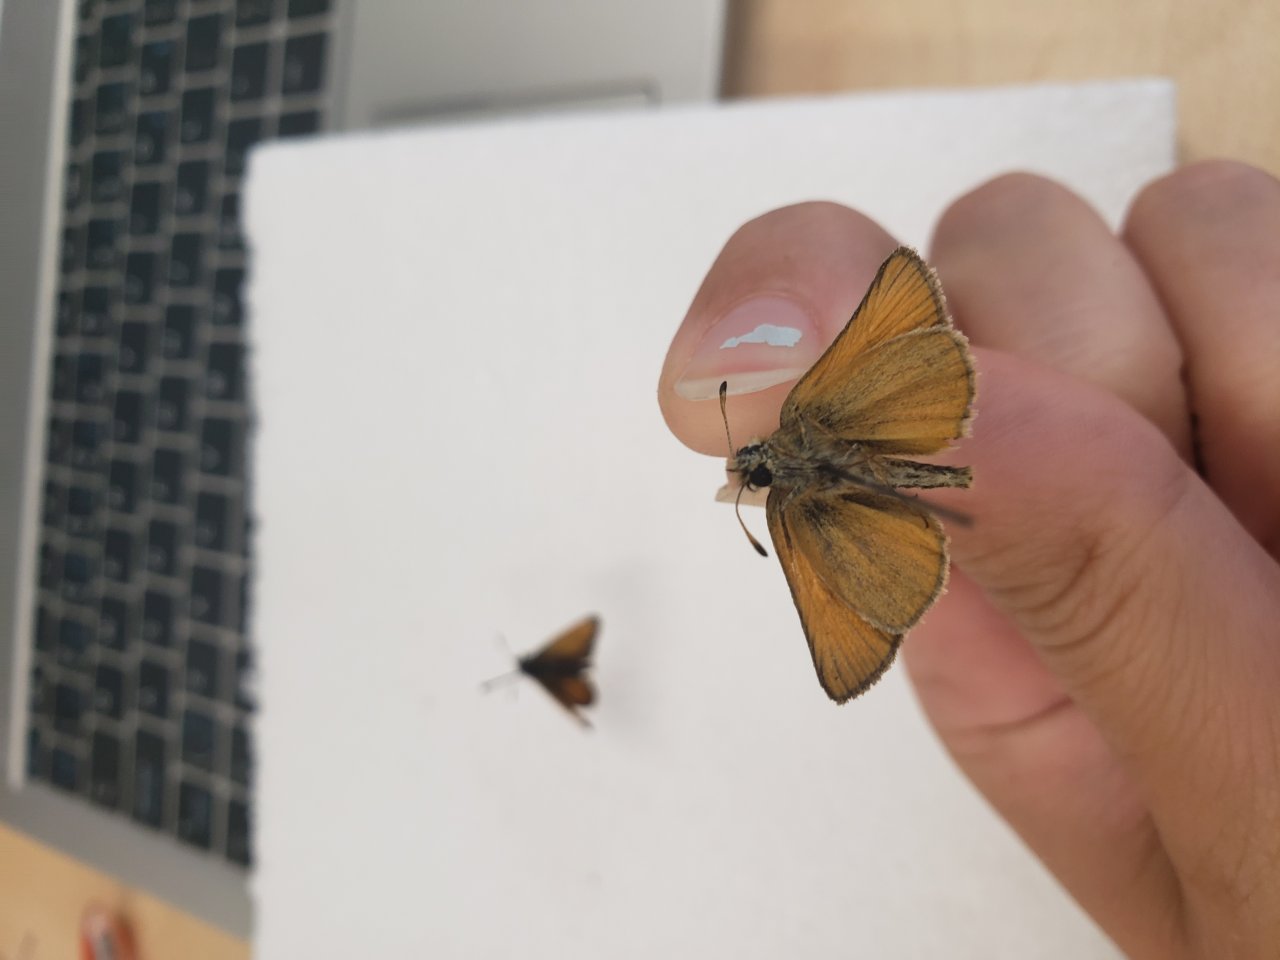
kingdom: Animalia
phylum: Arthropoda
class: Insecta
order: Lepidoptera
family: Hesperiidae
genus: Thymelicus
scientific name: Thymelicus lineola
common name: European Skipper
